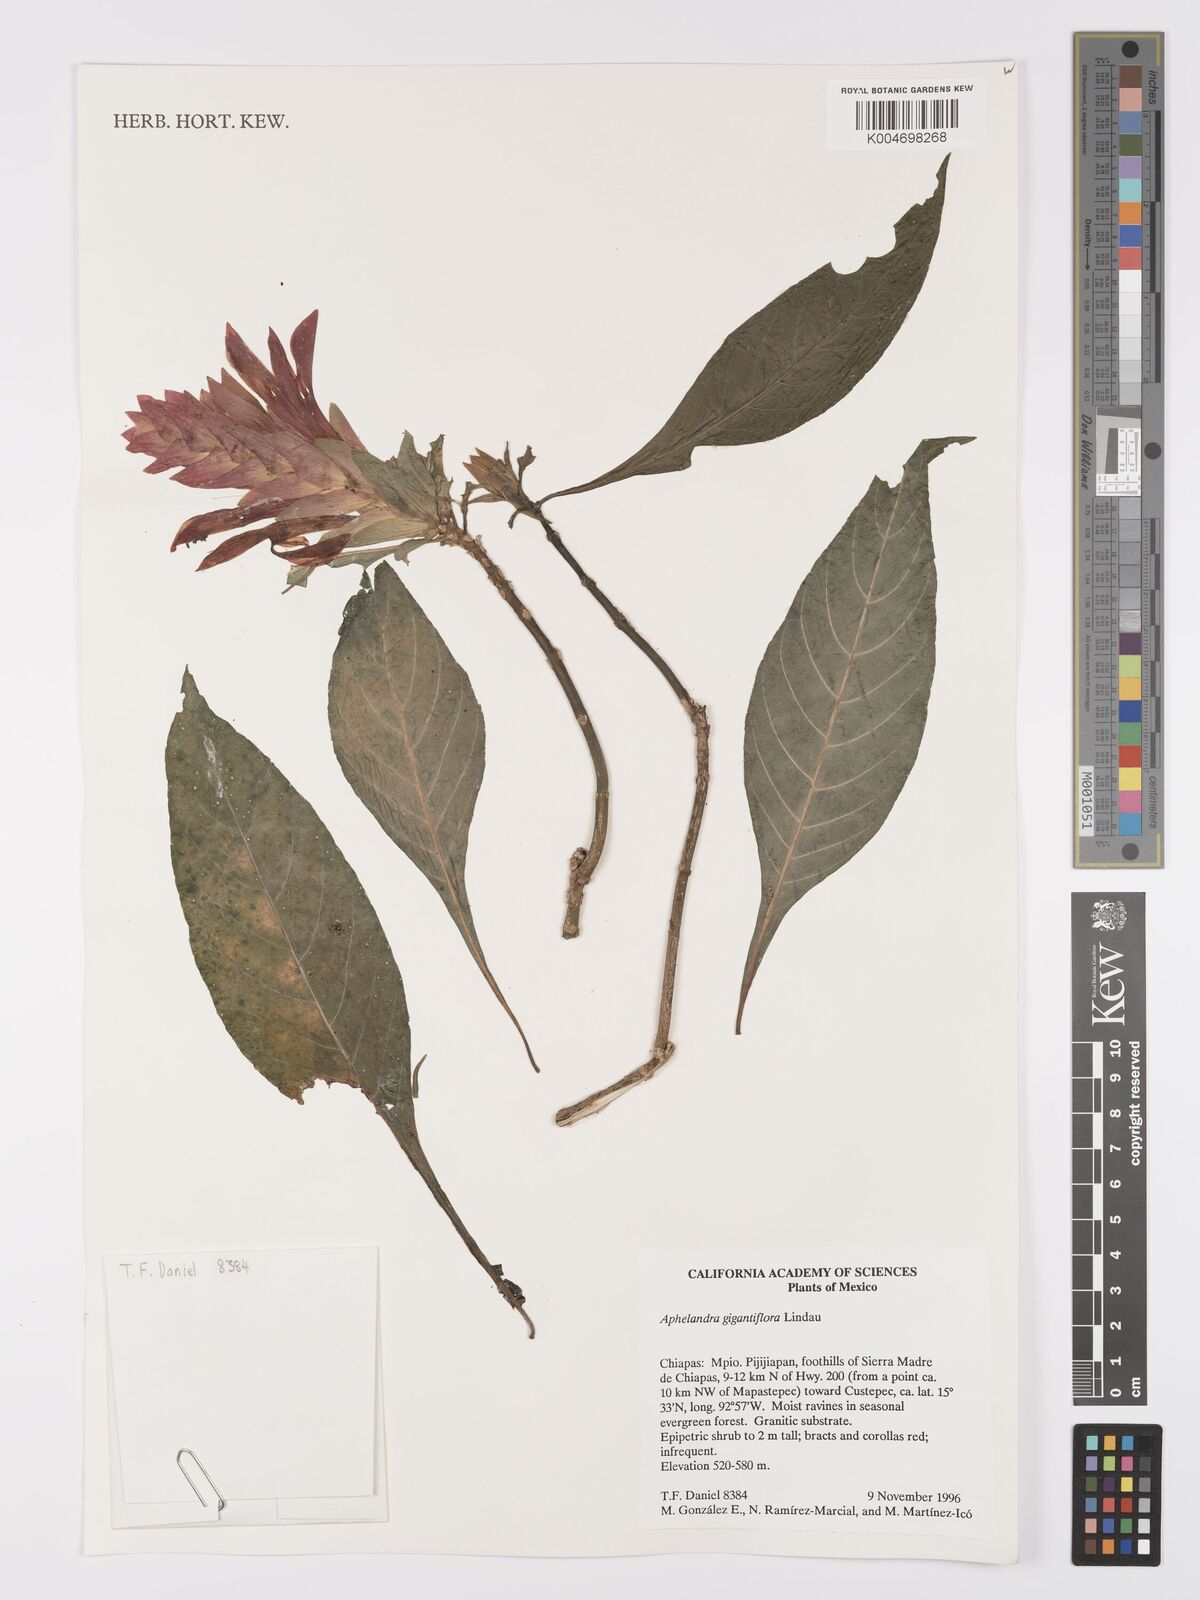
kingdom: Plantae
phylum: Tracheophyta
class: Magnoliopsida
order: Lamiales
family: Acanthaceae
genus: Aphelandra
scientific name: Aphelandra gigantiflora
